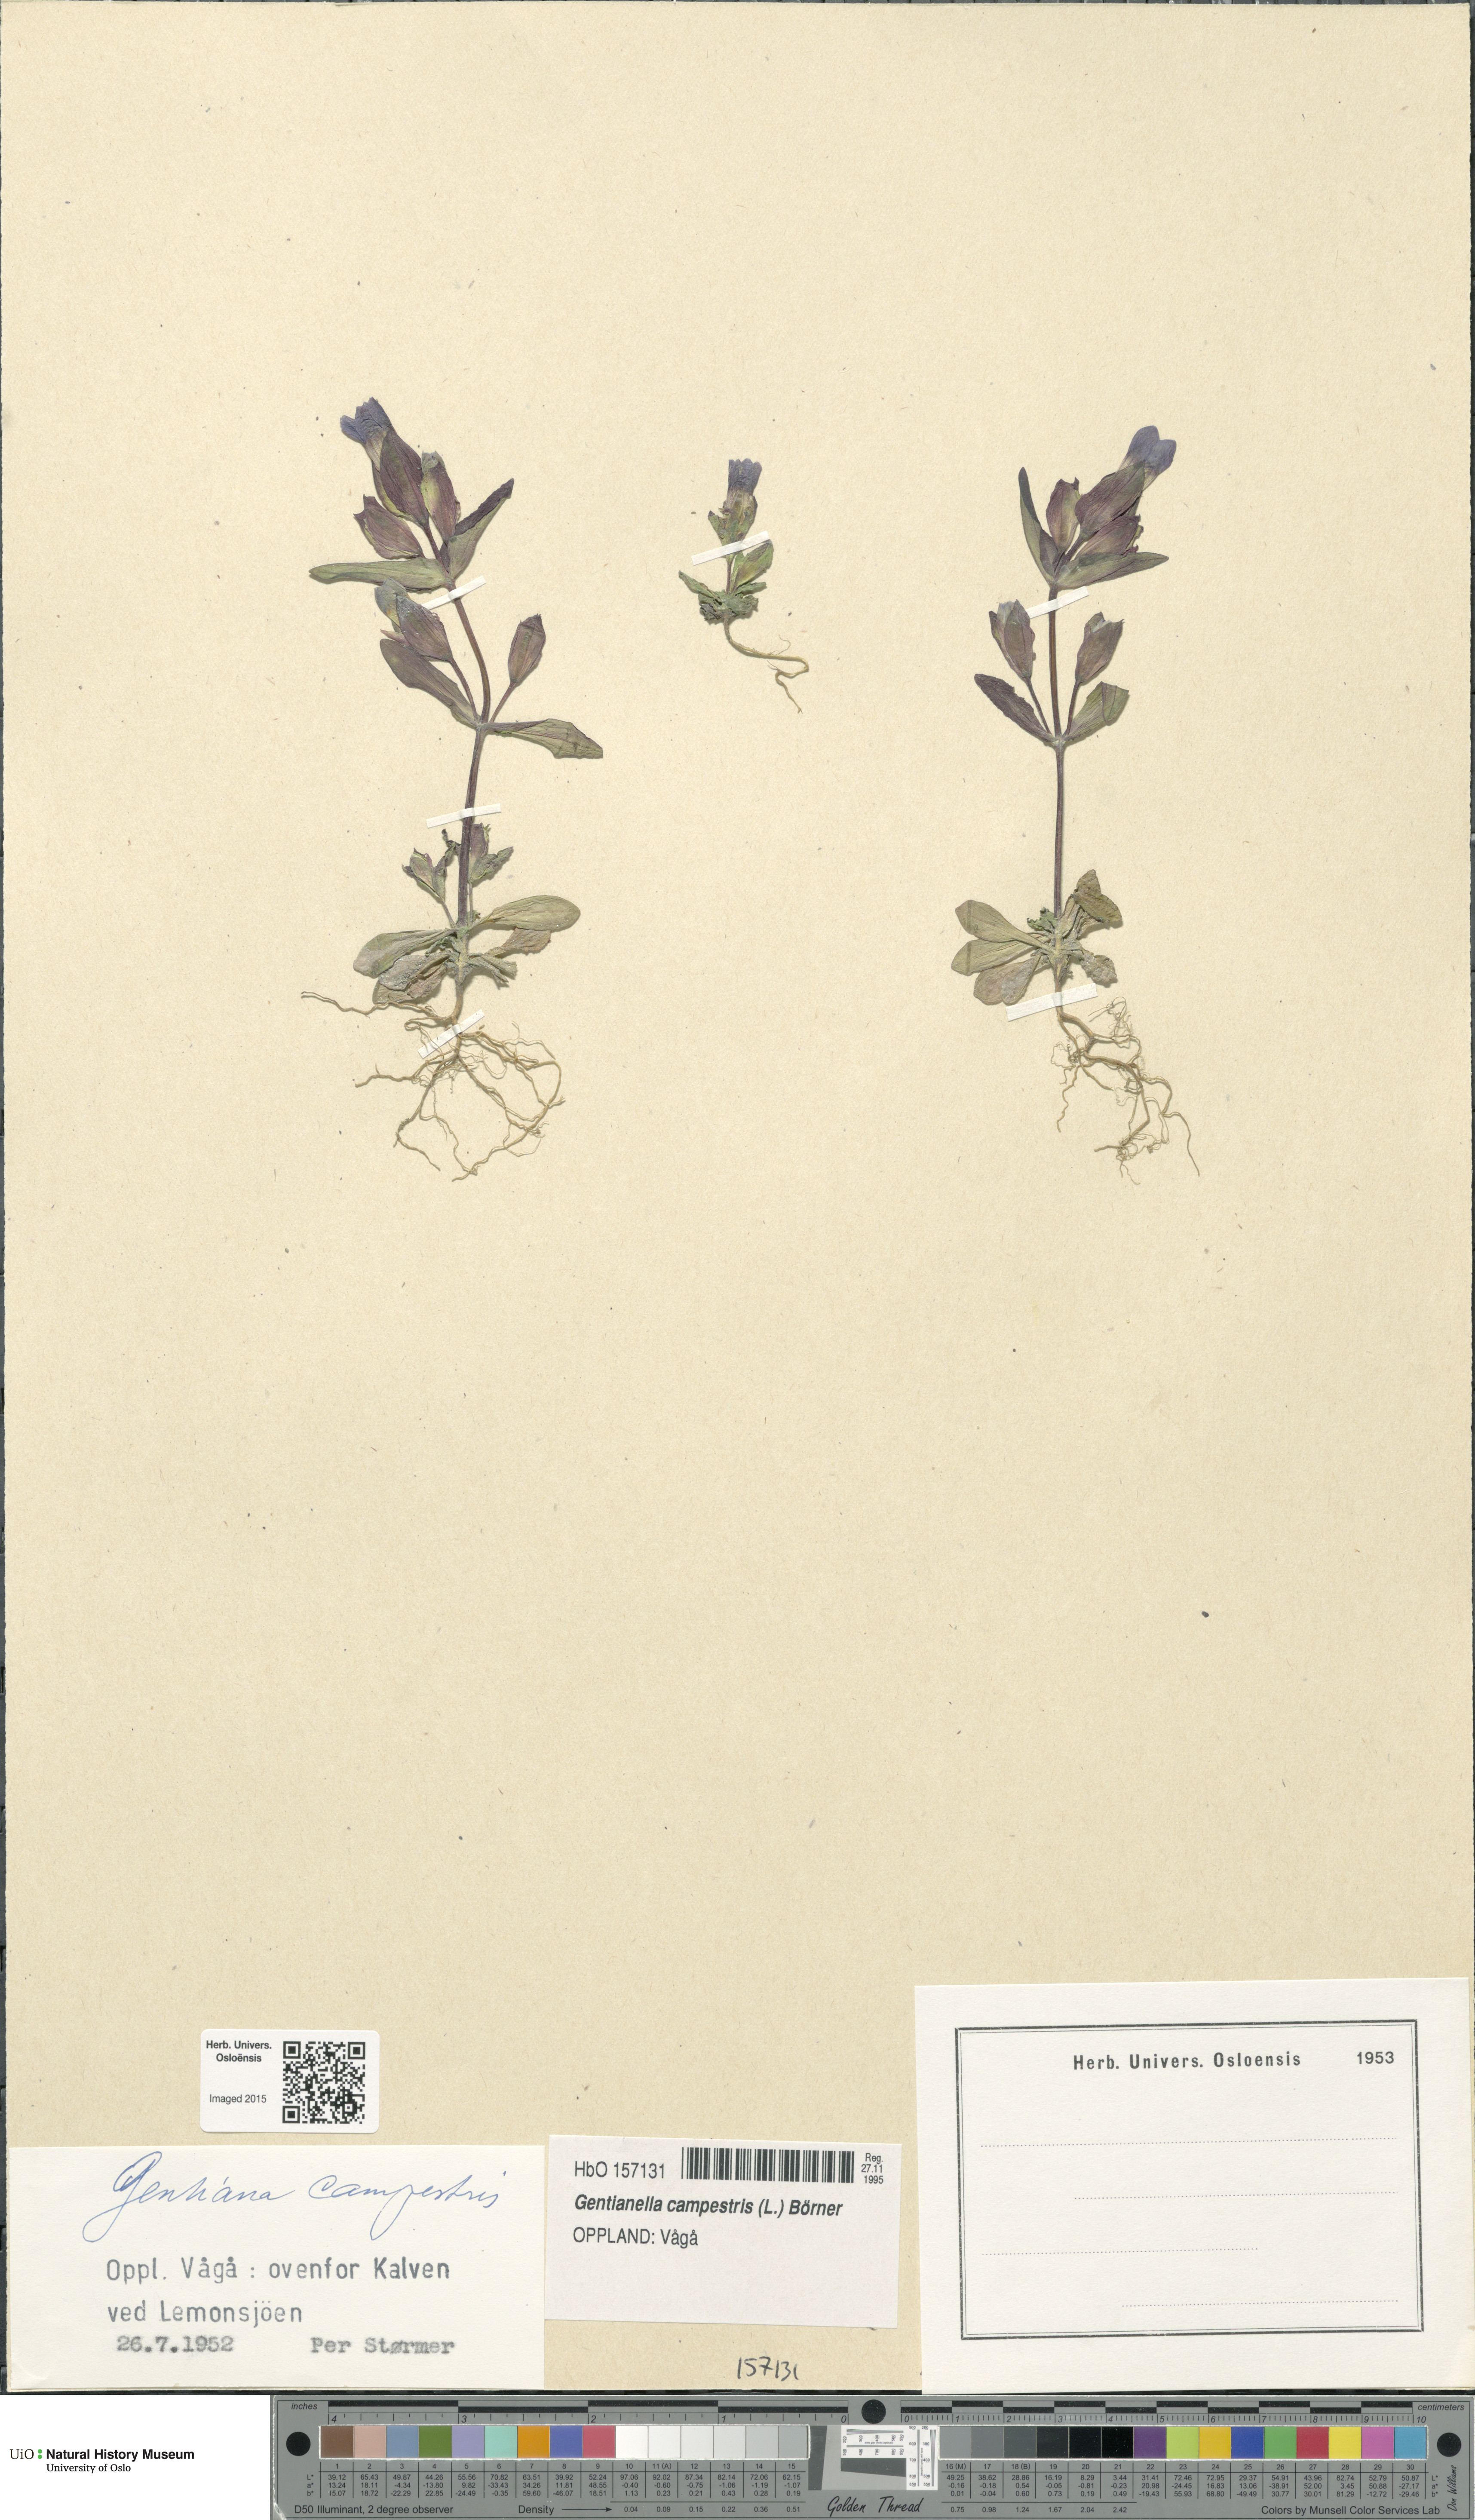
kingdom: Plantae
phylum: Tracheophyta
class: Magnoliopsida
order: Gentianales
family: Gentianaceae
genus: Gentianella
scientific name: Gentianella campestris
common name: Field gentian
